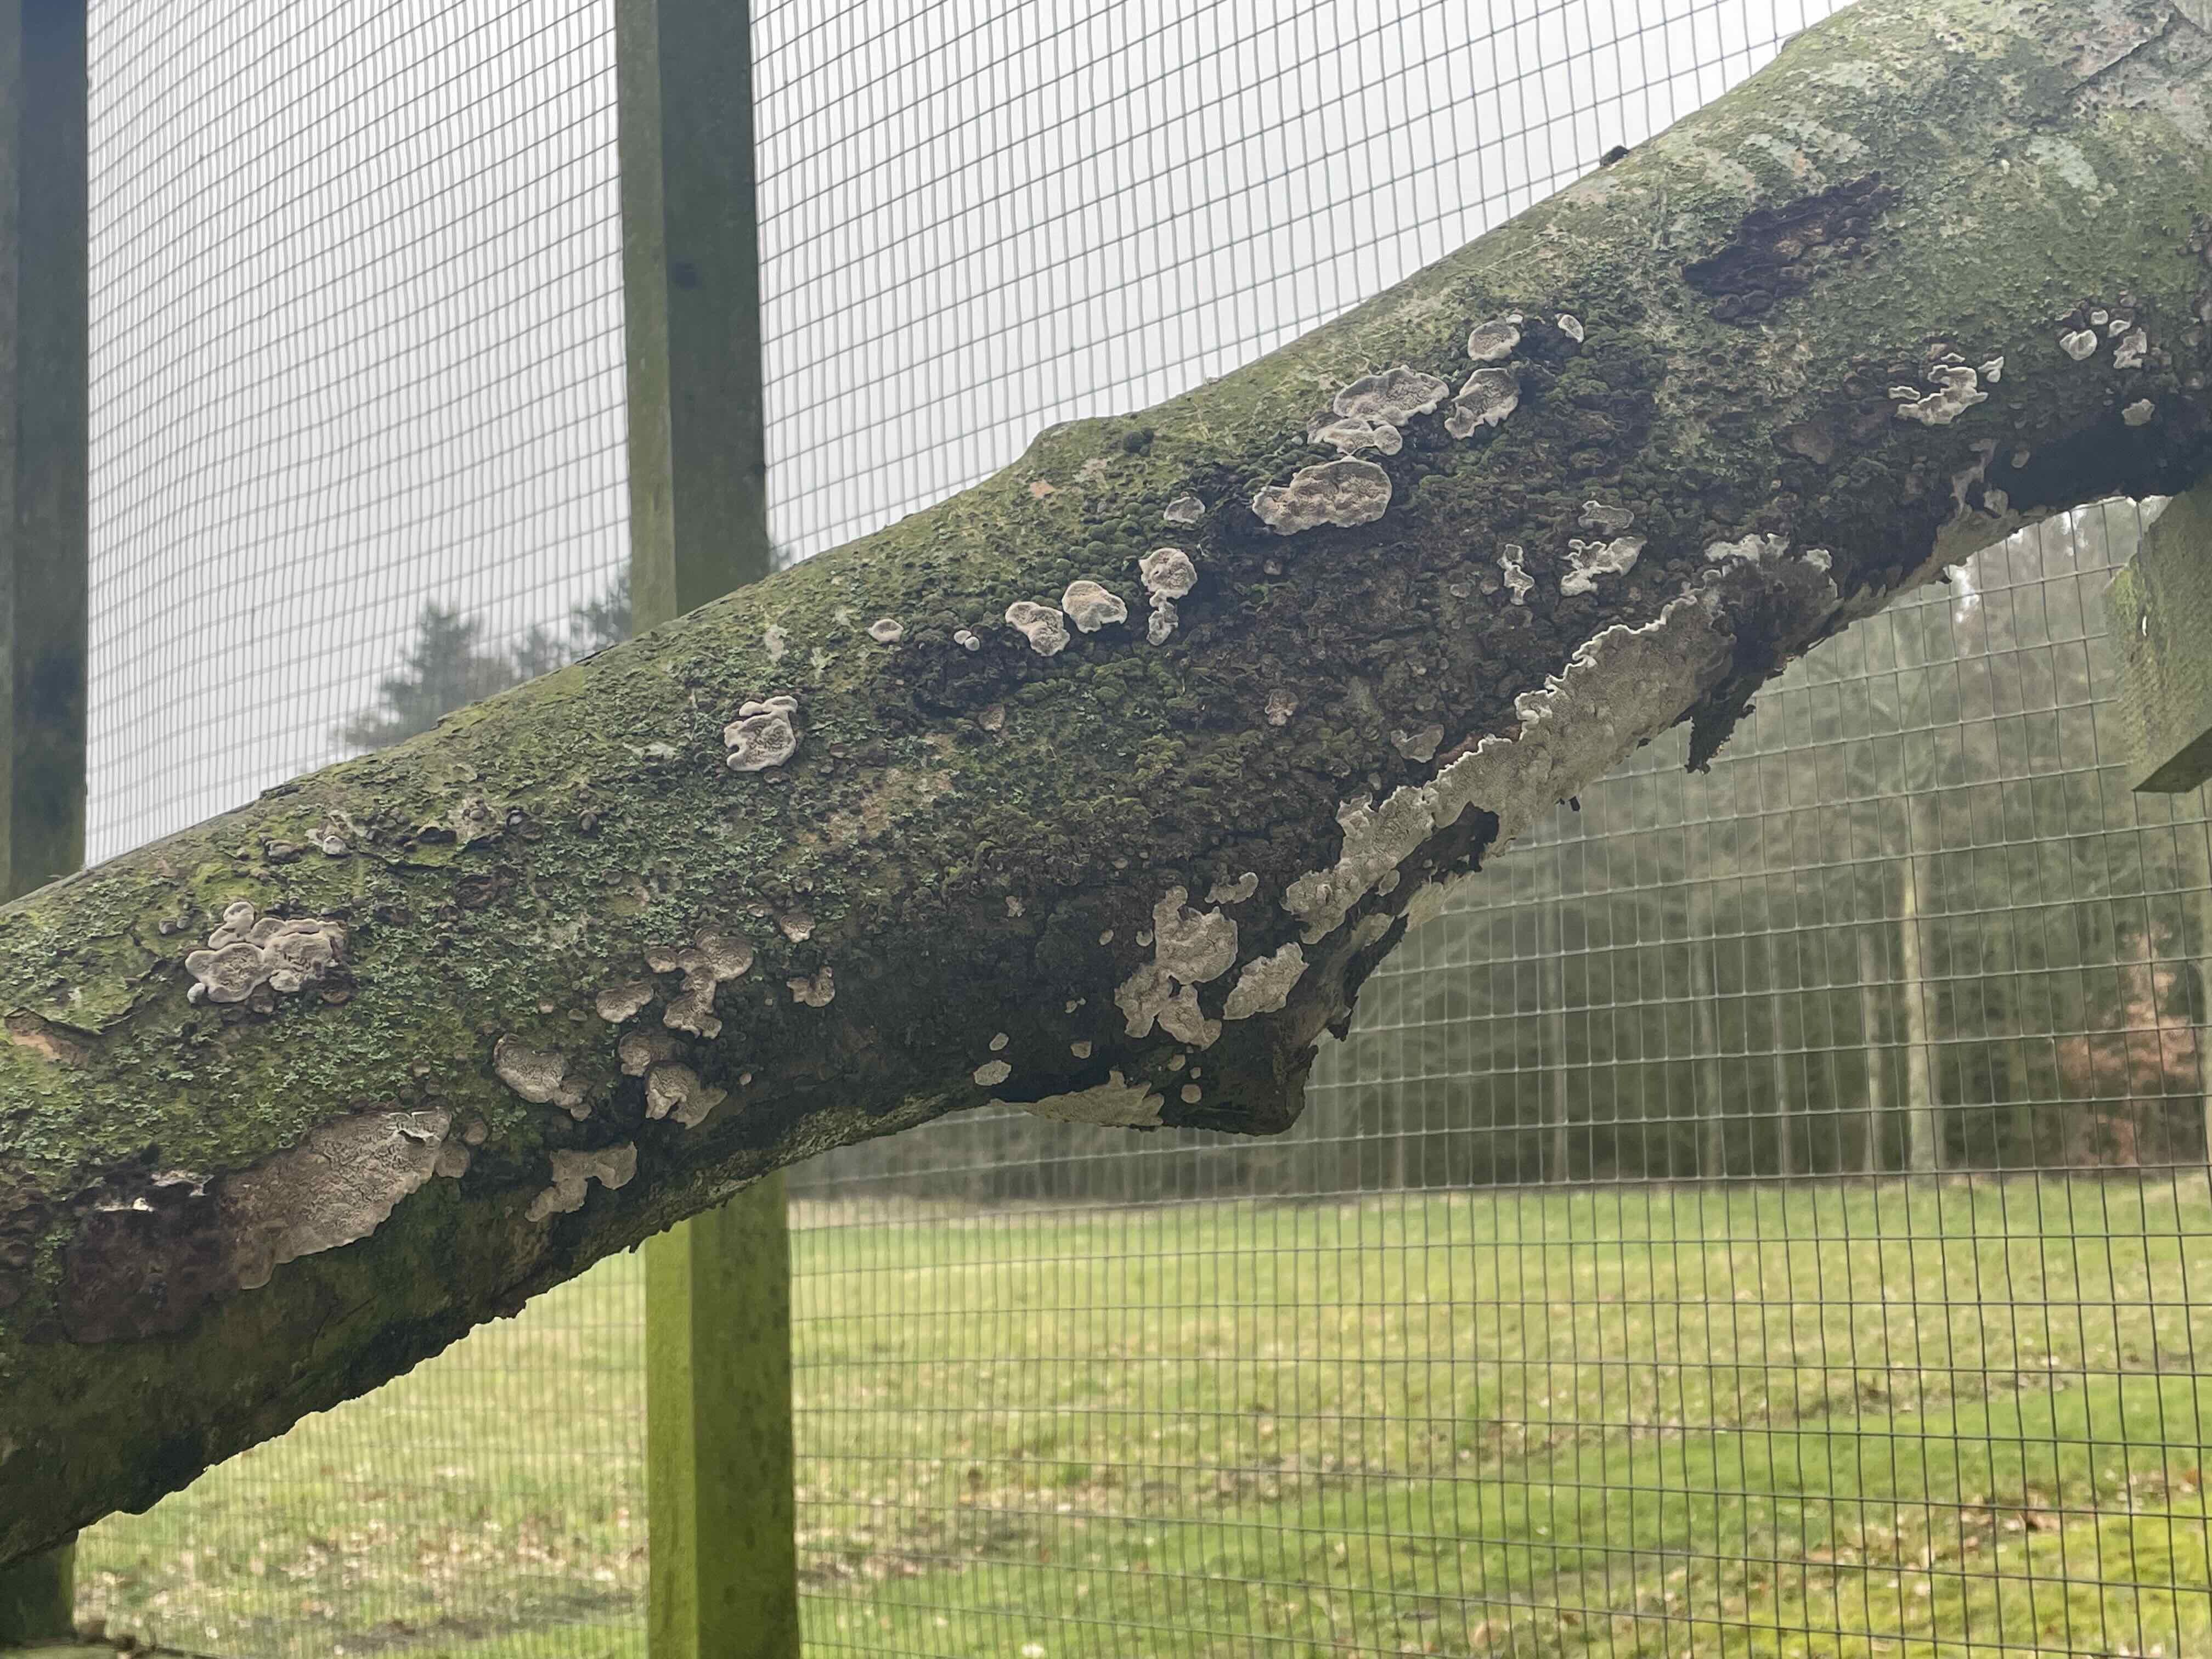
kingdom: Fungi
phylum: Basidiomycota
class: Agaricomycetes
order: Polyporales
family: Polyporaceae
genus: Podofomes
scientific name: Podofomes mollis
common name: blød begporesvamp
